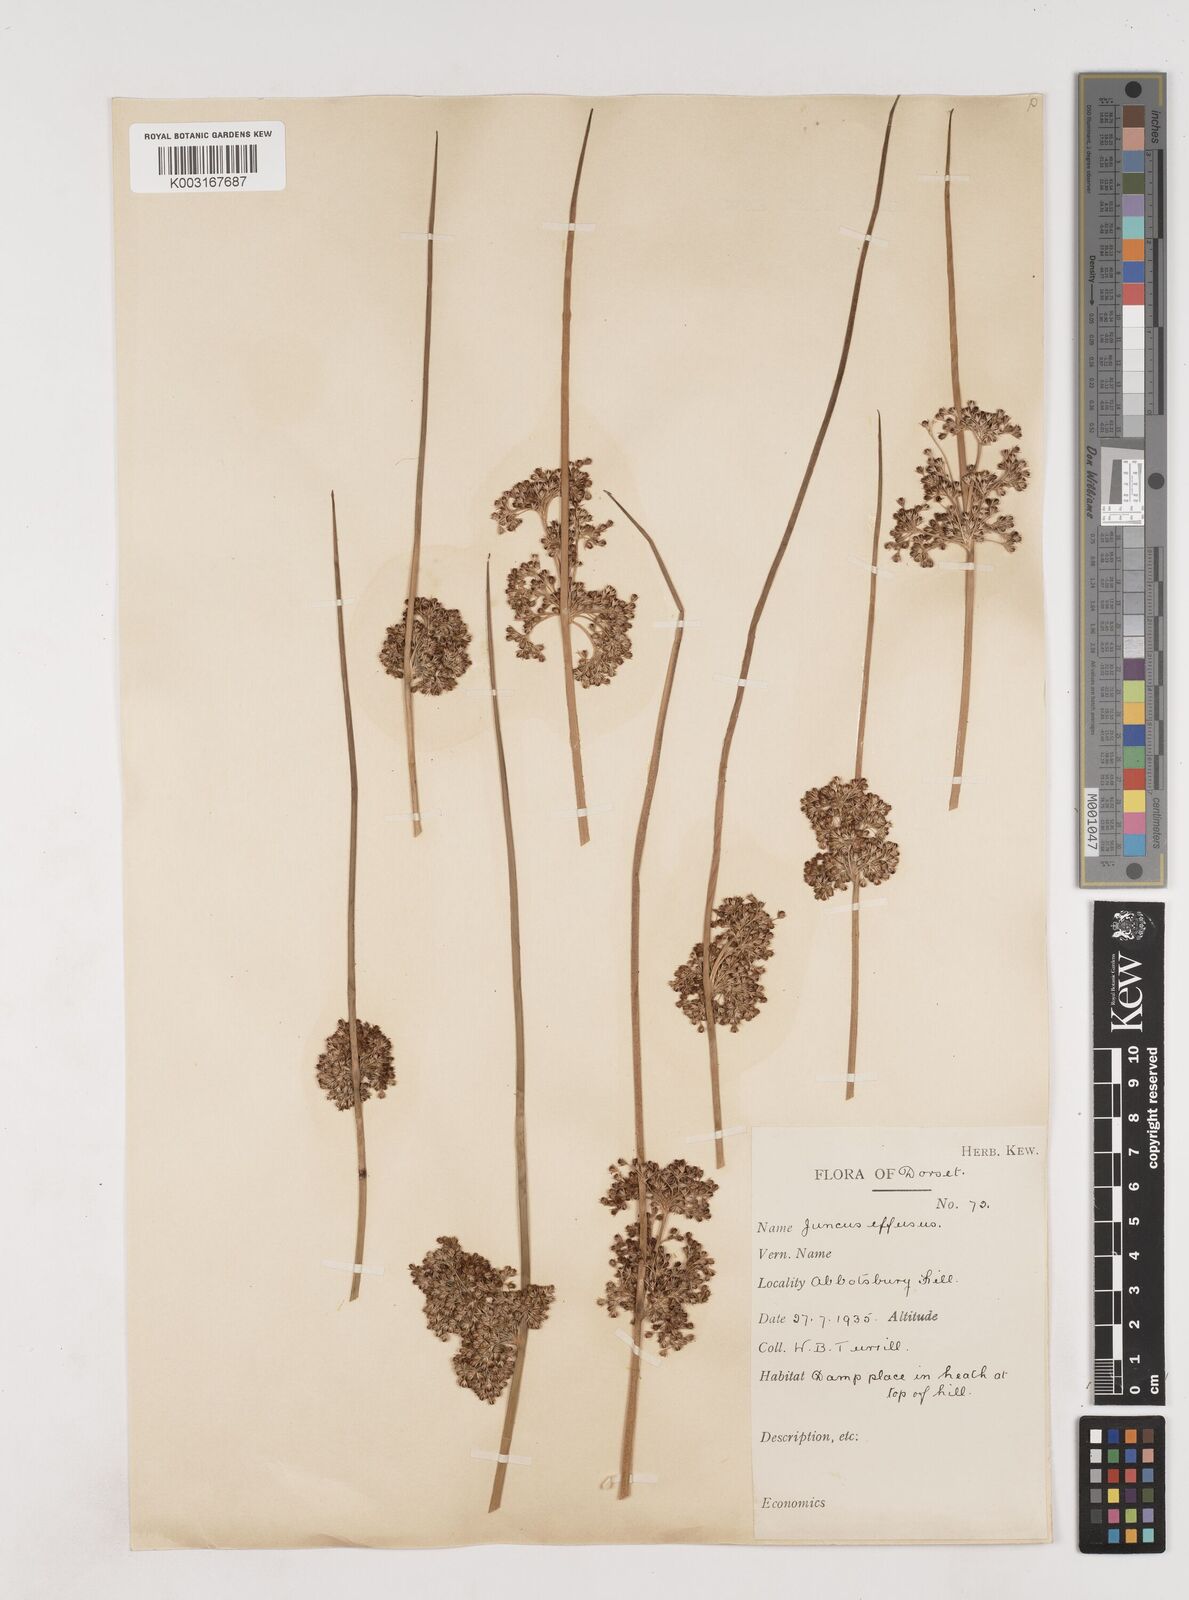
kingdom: Plantae
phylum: Tracheophyta
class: Liliopsida
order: Poales
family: Juncaceae
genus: Juncus
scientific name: Juncus effusus
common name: Soft rush
